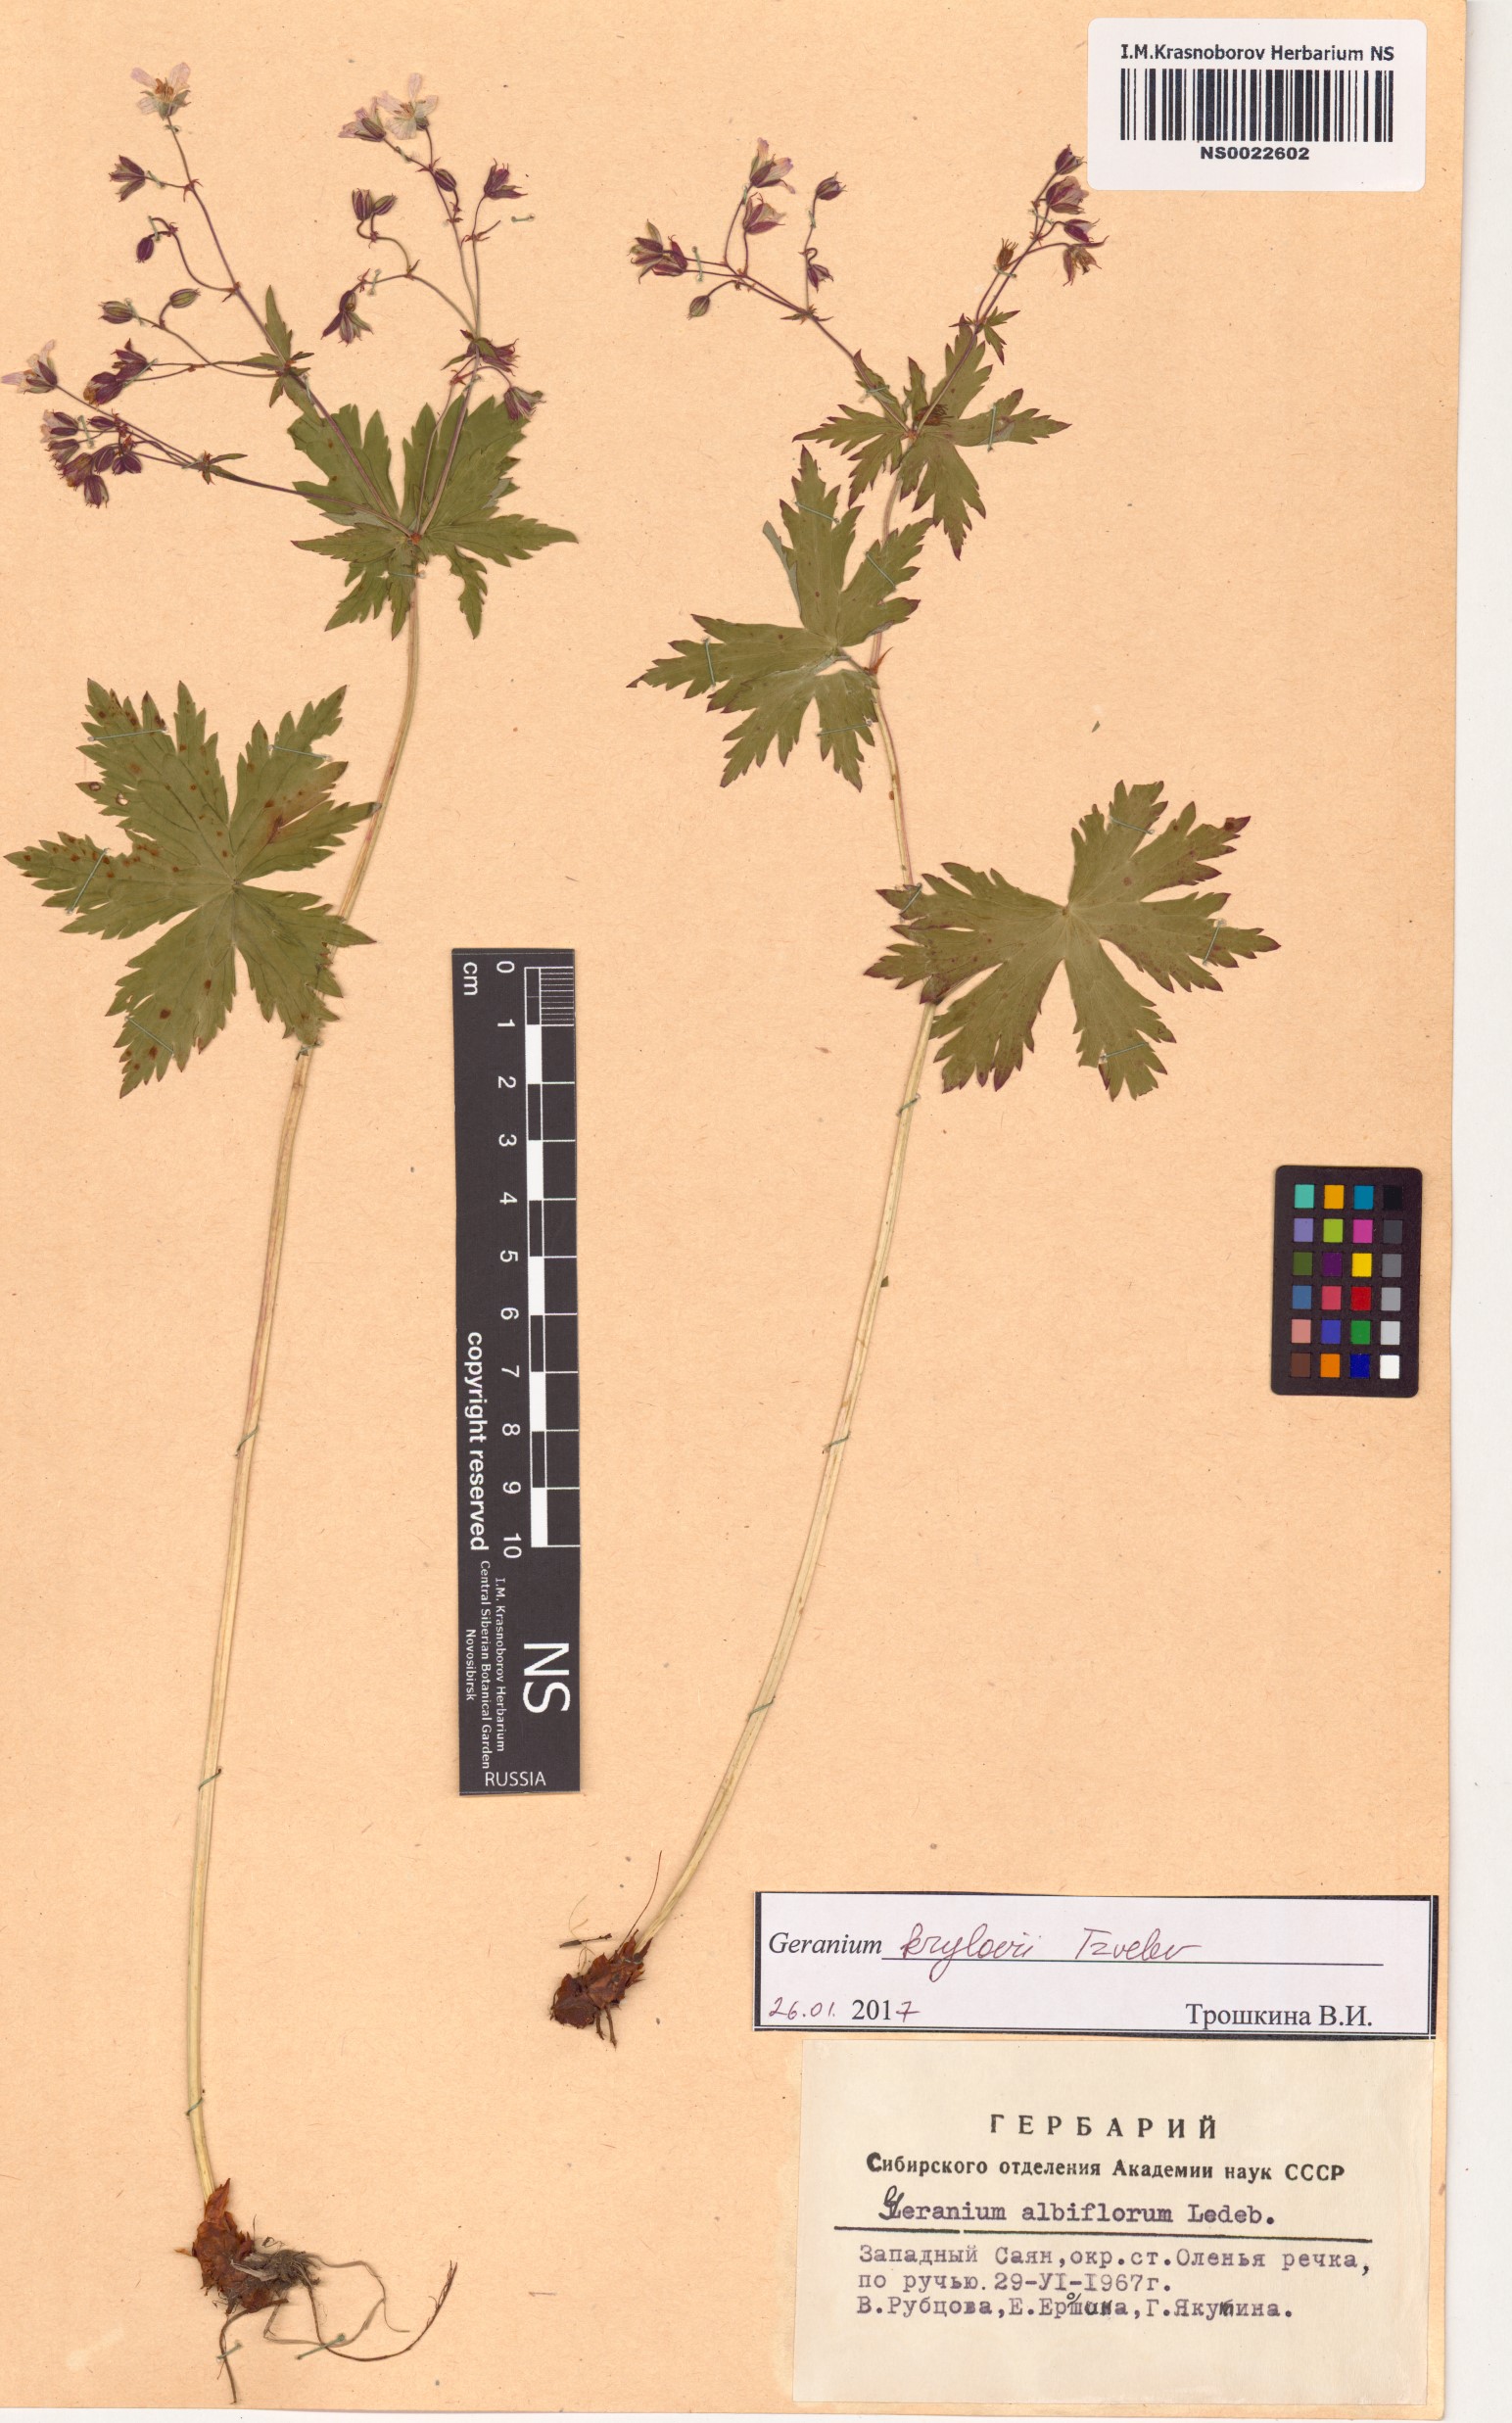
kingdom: Plantae
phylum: Tracheophyta
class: Magnoliopsida
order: Geraniales
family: Geraniaceae
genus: Geranium
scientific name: Geranium sylvaticum
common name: Wood crane's-bill
